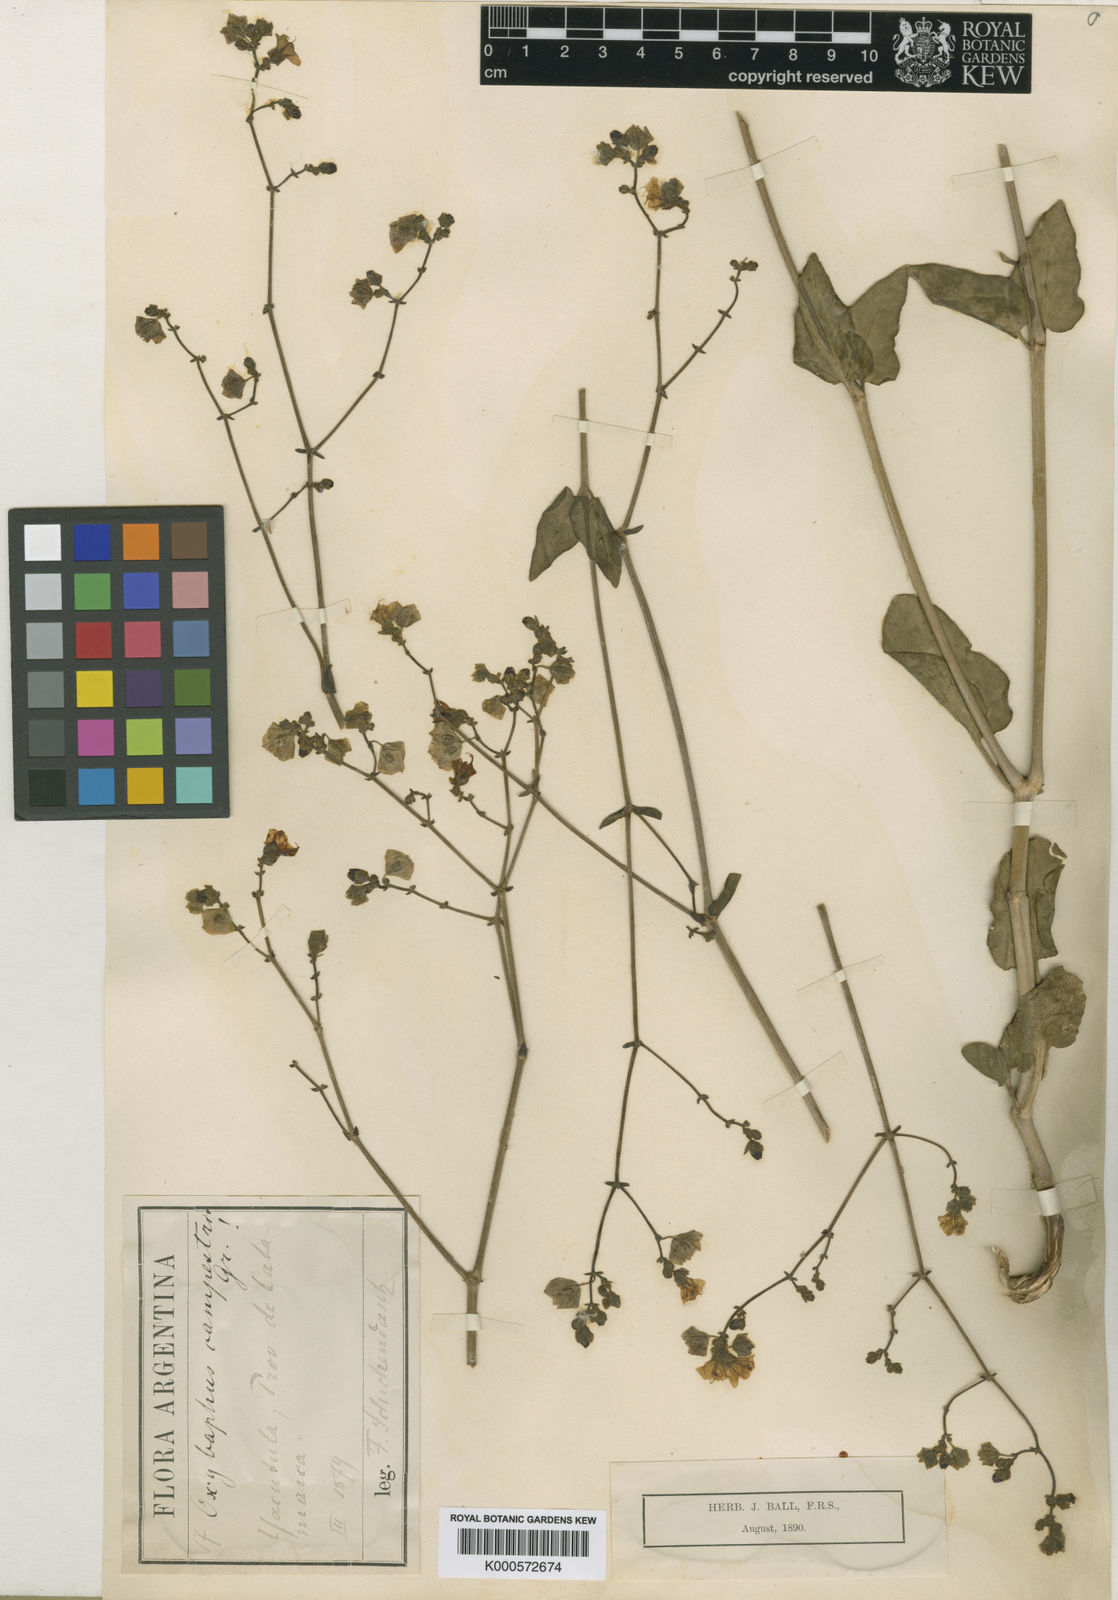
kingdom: Plantae
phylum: Tracheophyta
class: Magnoliopsida
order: Caryophyllales
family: Nyctaginaceae
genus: Mirabilis
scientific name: Mirabilis ovata
